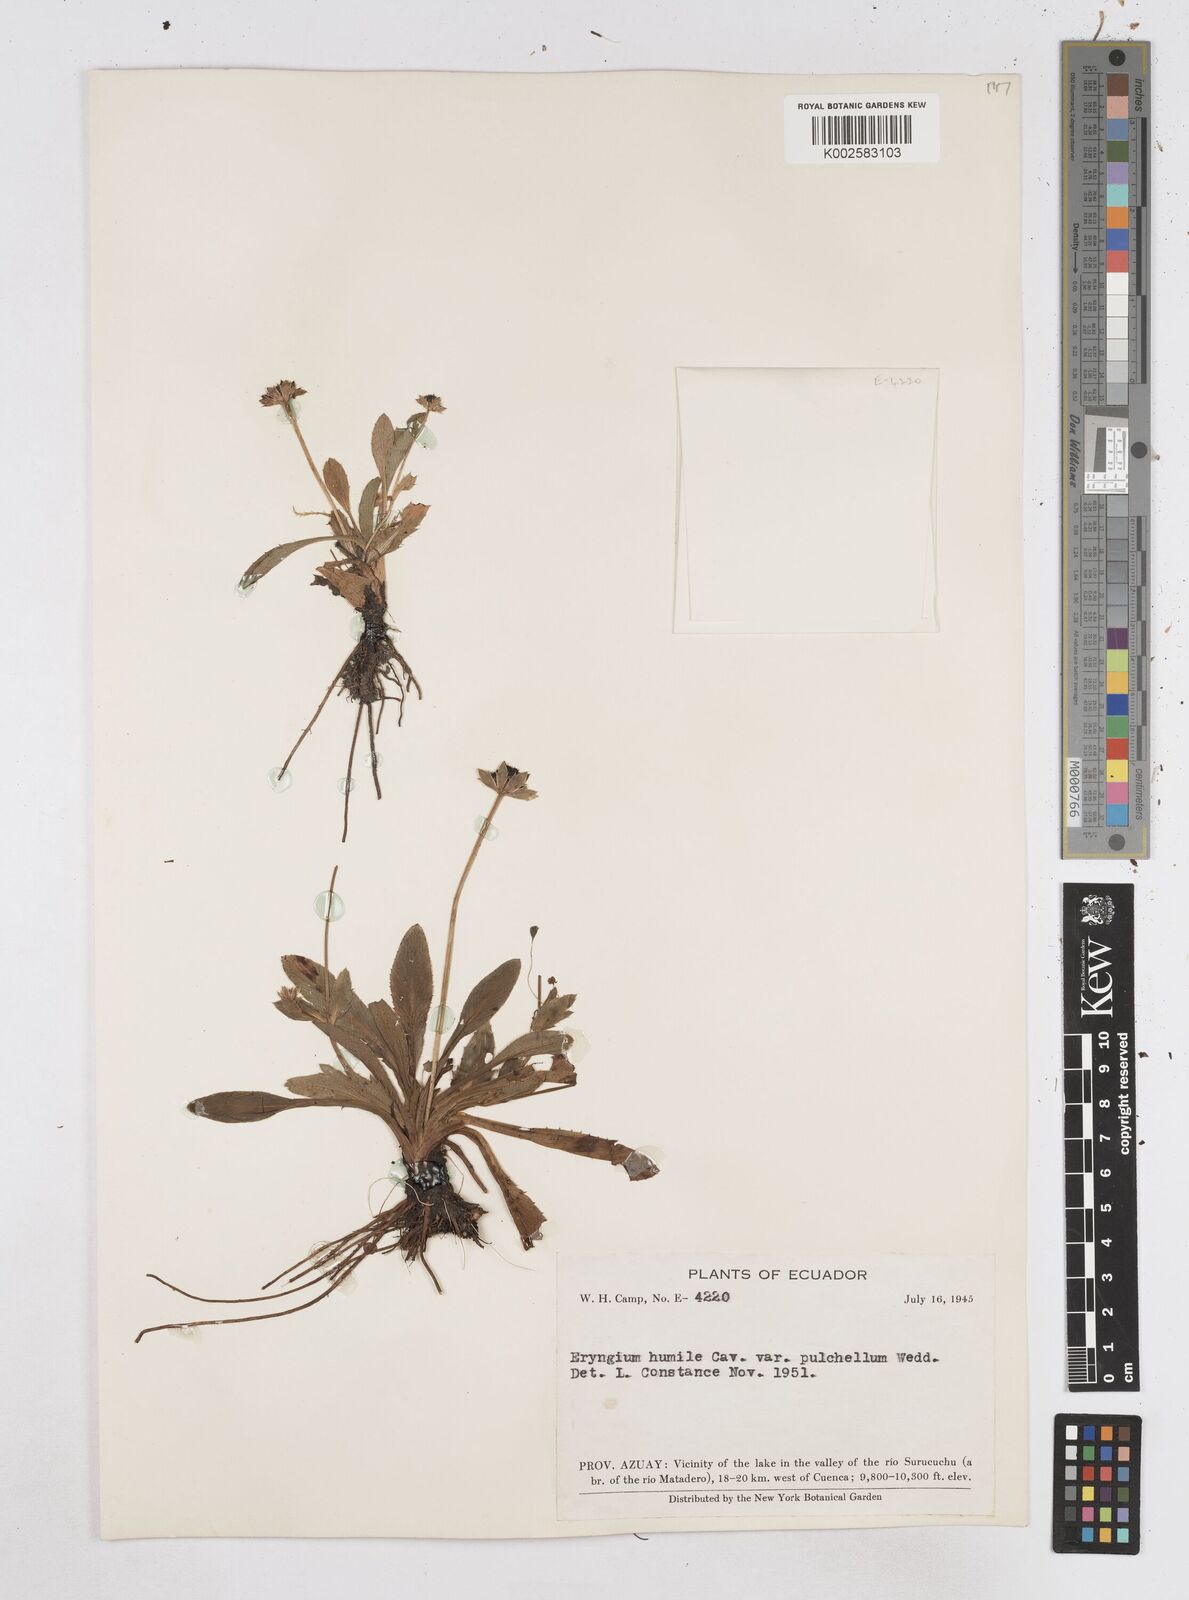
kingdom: Plantae
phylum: Tracheophyta
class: Magnoliopsida
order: Apiales
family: Apiaceae
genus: Eryngium
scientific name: Eryngium humile
